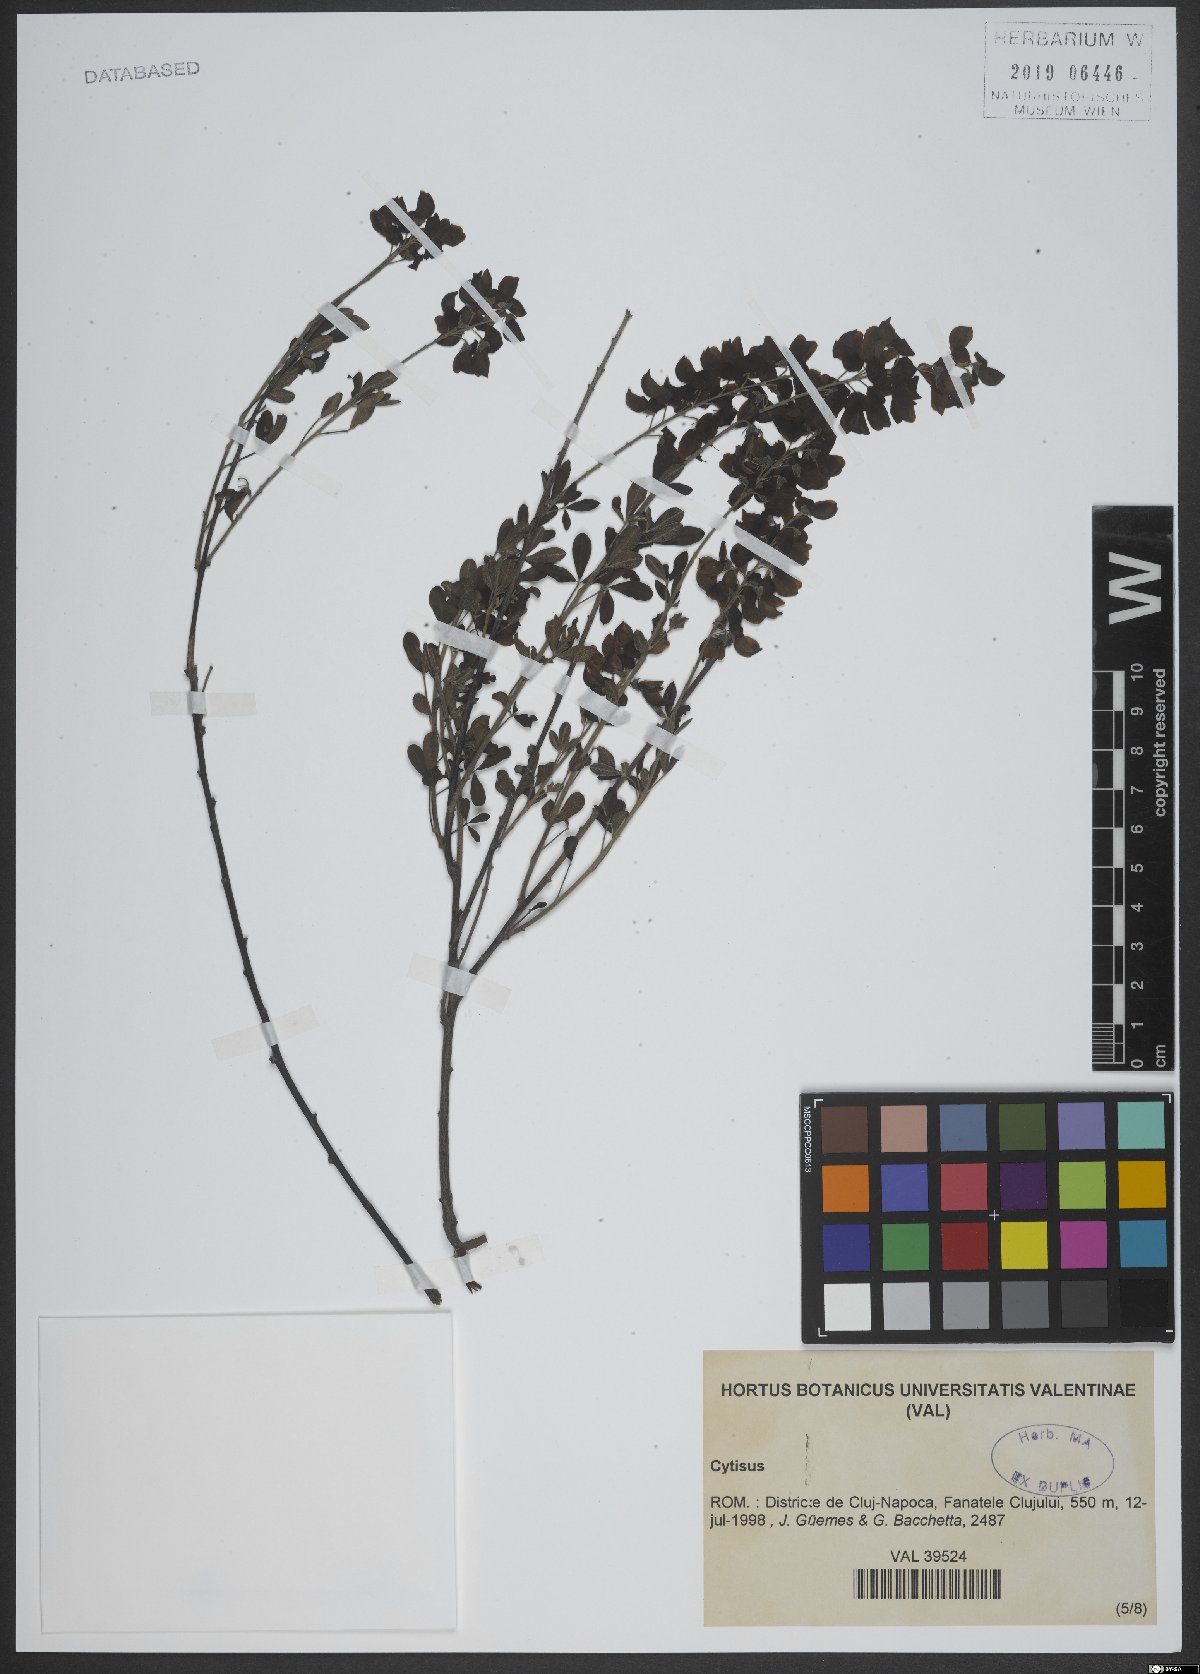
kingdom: Plantae
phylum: Tracheophyta
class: Magnoliopsida
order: Fabales
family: Fabaceae
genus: Cytisus
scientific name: Cytisus
